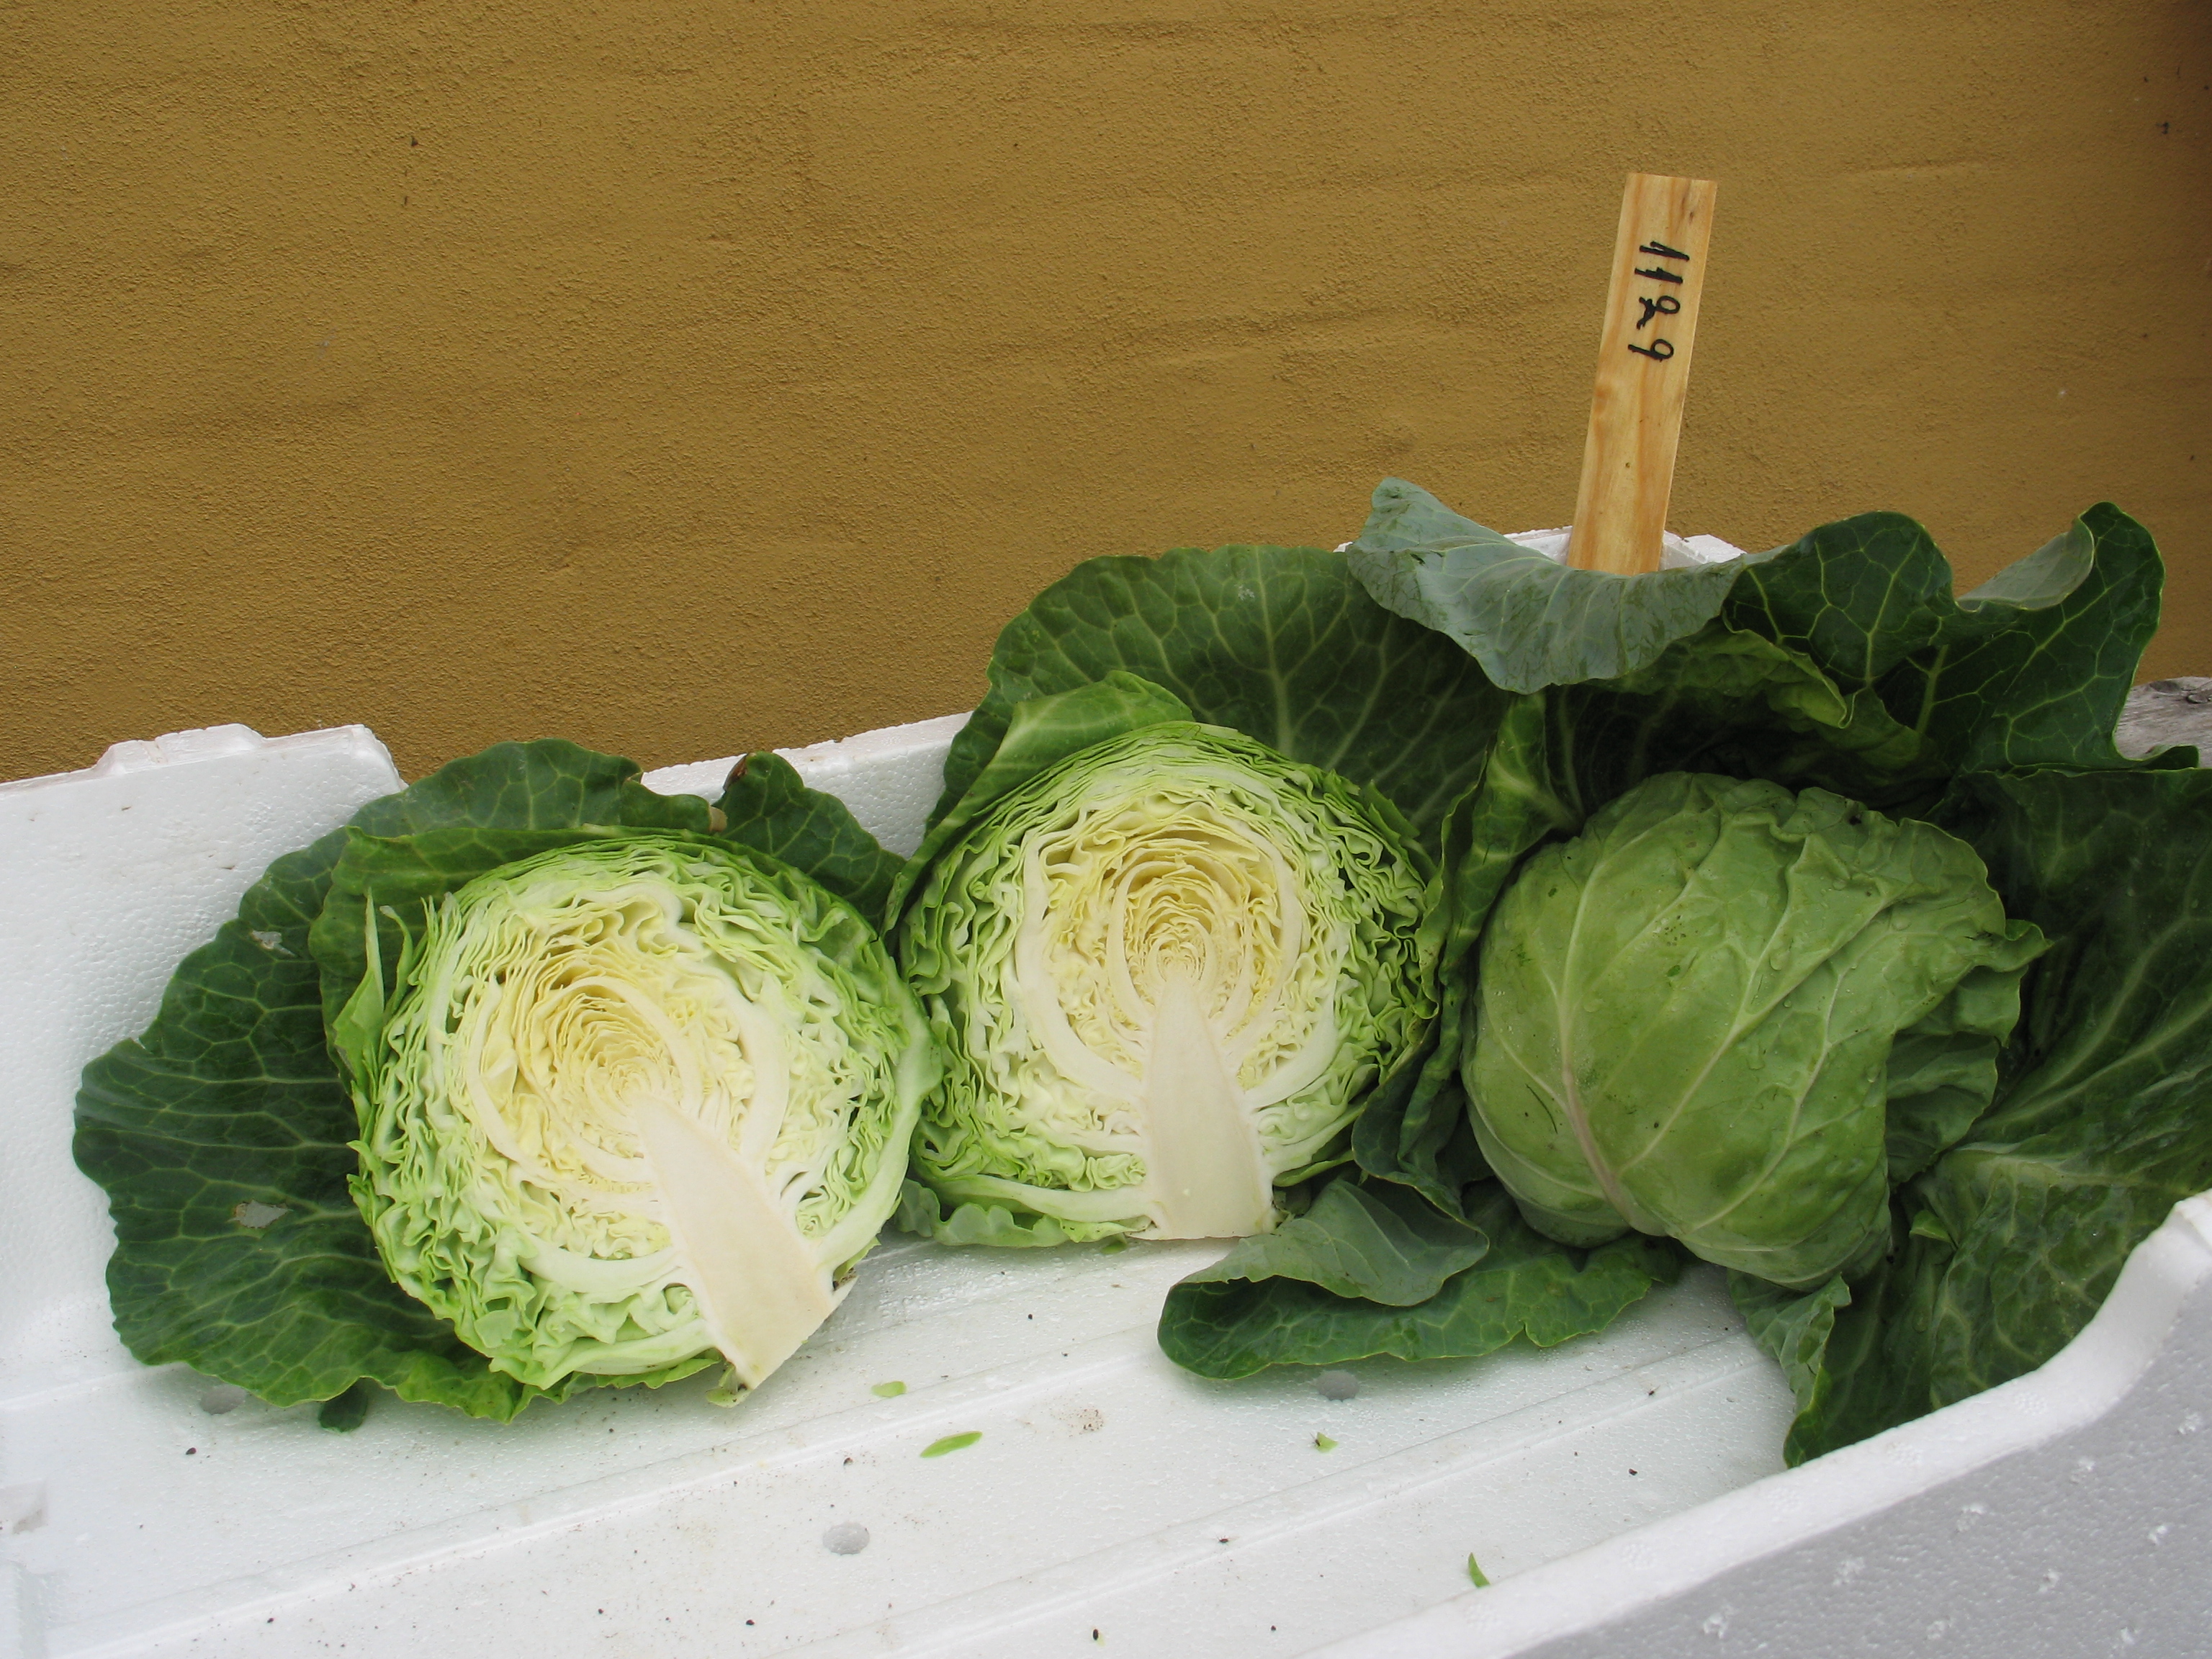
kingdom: Plantae
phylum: Tracheophyta
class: Magnoliopsida
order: Brassicales
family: Brassicaceae
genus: Brassica
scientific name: Brassica oleracea
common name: Cabbage
